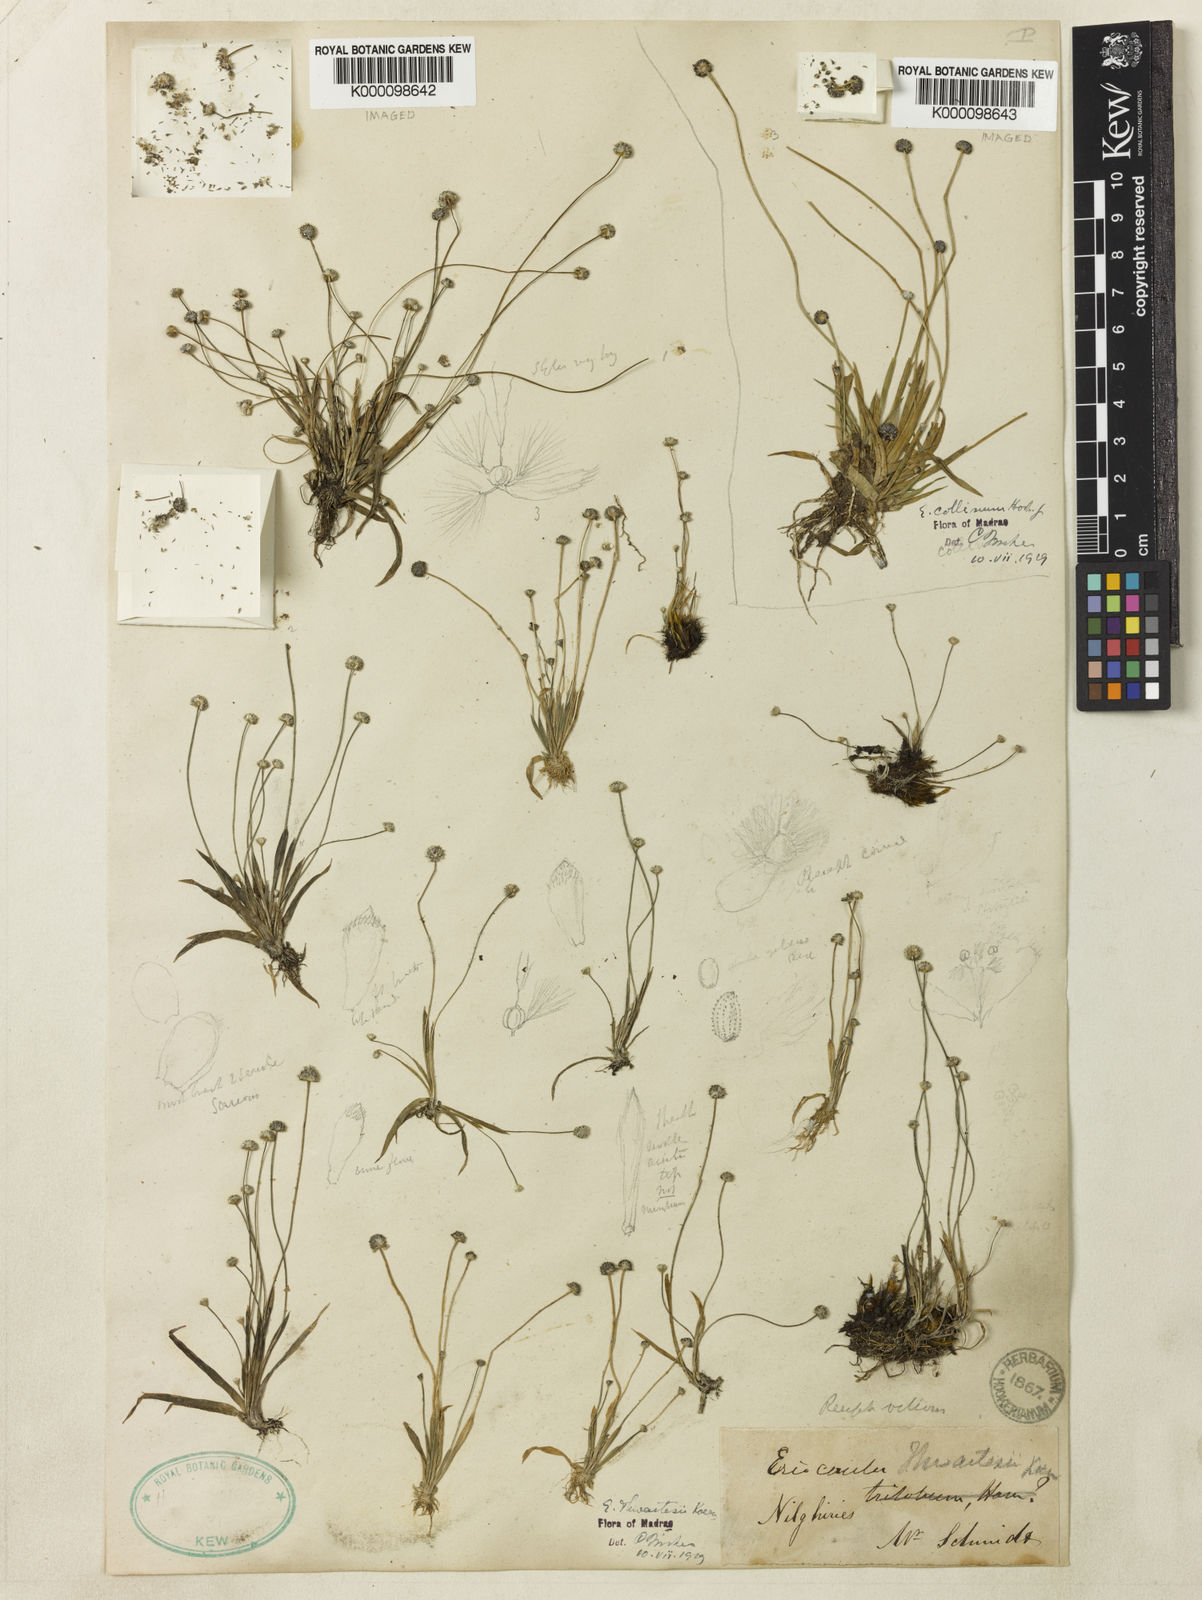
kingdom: Plantae
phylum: Tracheophyta
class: Liliopsida
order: Poales
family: Eriocaulaceae
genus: Eriocaulon
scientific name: Eriocaulon thwaitesii
